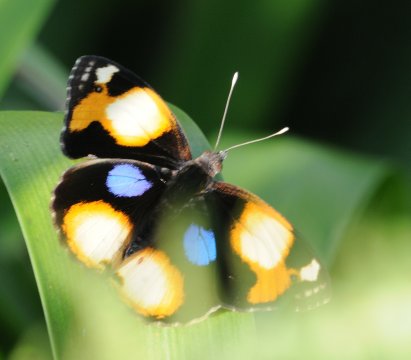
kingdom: Animalia
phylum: Arthropoda
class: Insecta
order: Lepidoptera
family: Nymphalidae
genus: Junonia
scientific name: Junonia hierta
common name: Yellow Pansy
